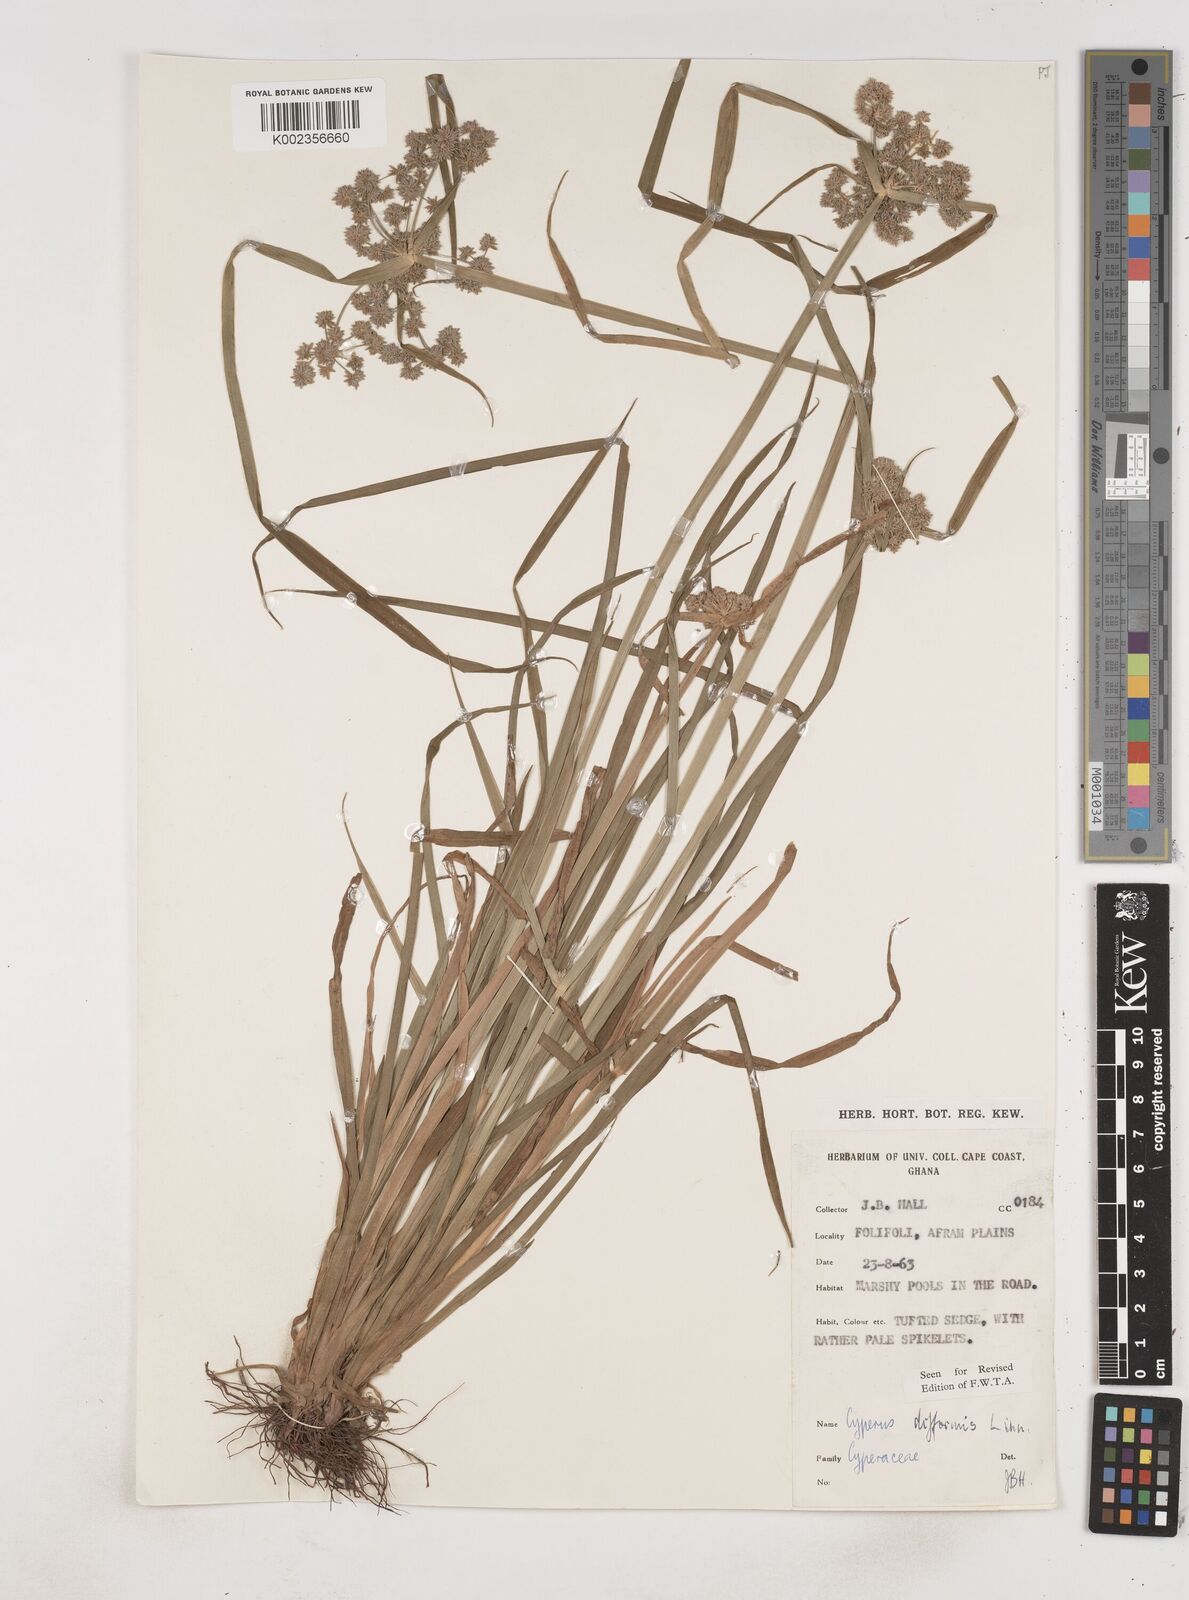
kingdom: Plantae
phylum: Tracheophyta
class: Liliopsida
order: Poales
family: Cyperaceae
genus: Cyperus
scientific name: Cyperus difformis
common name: Variable flatsedge
